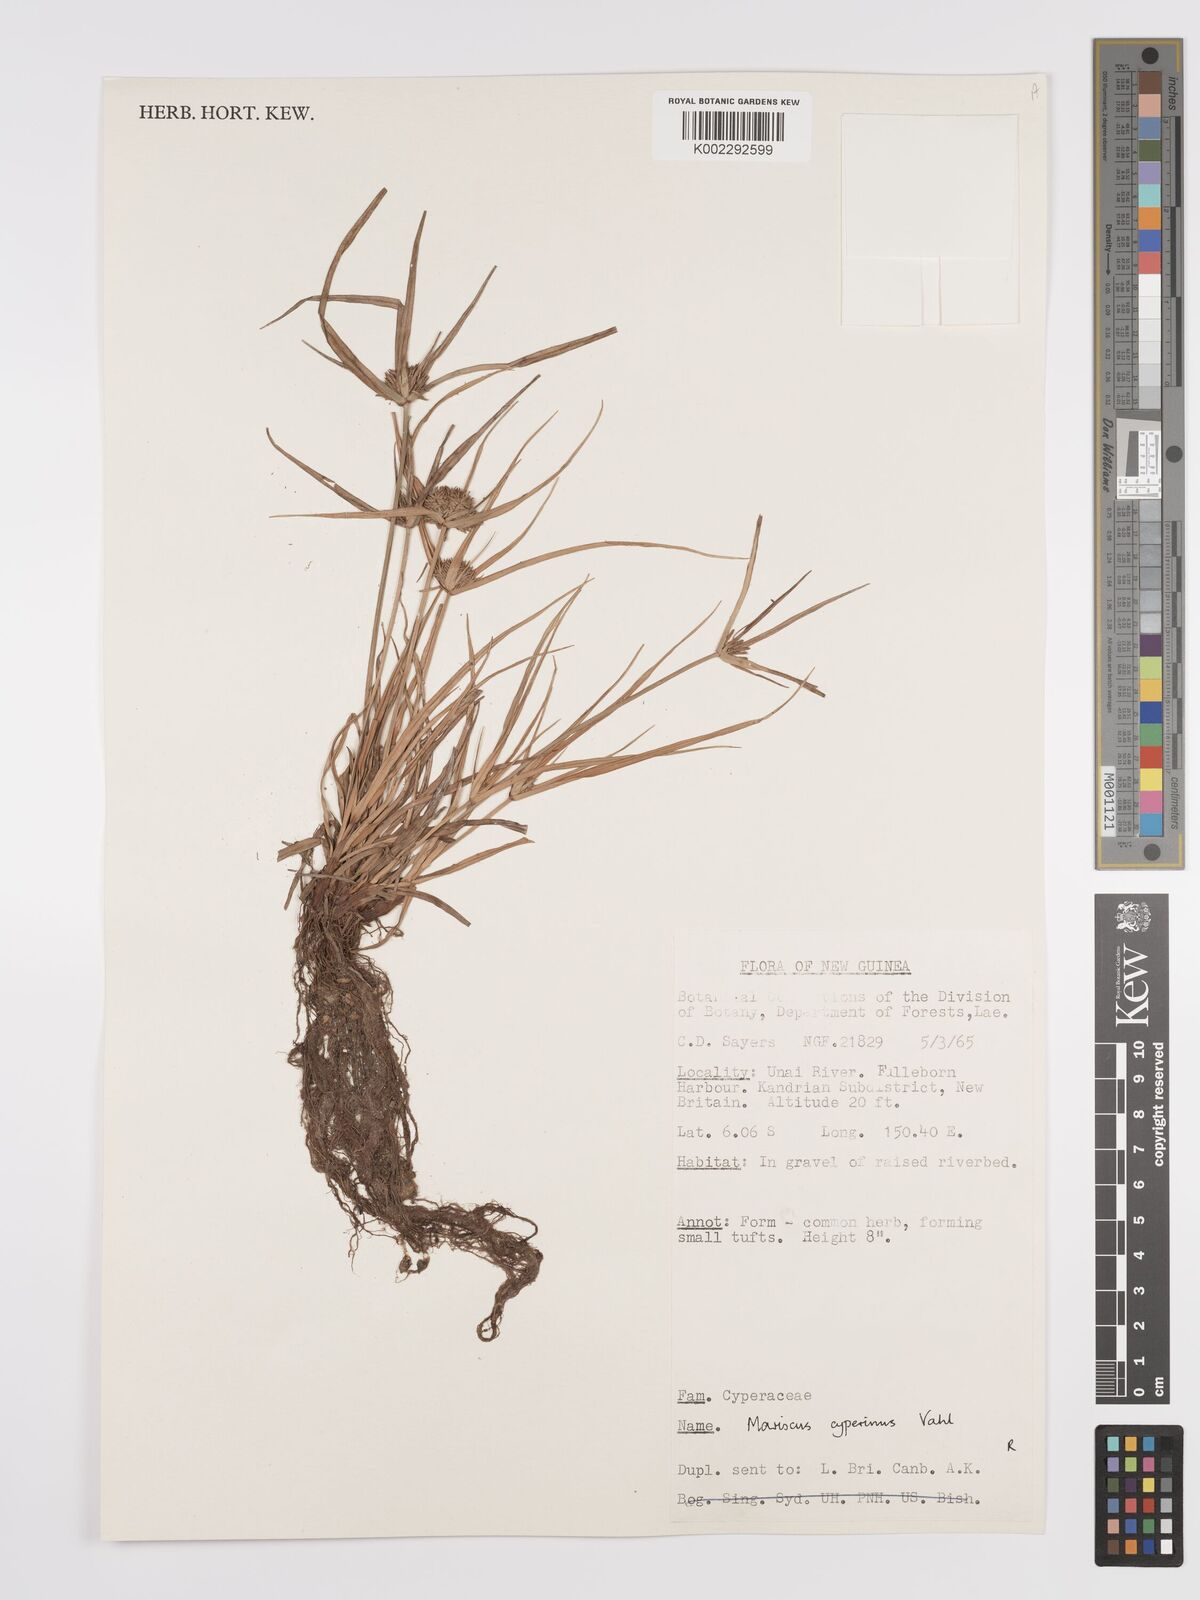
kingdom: Plantae
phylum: Tracheophyta
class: Liliopsida
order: Poales
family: Cyperaceae
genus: Cyperus
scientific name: Cyperus cyperinus
